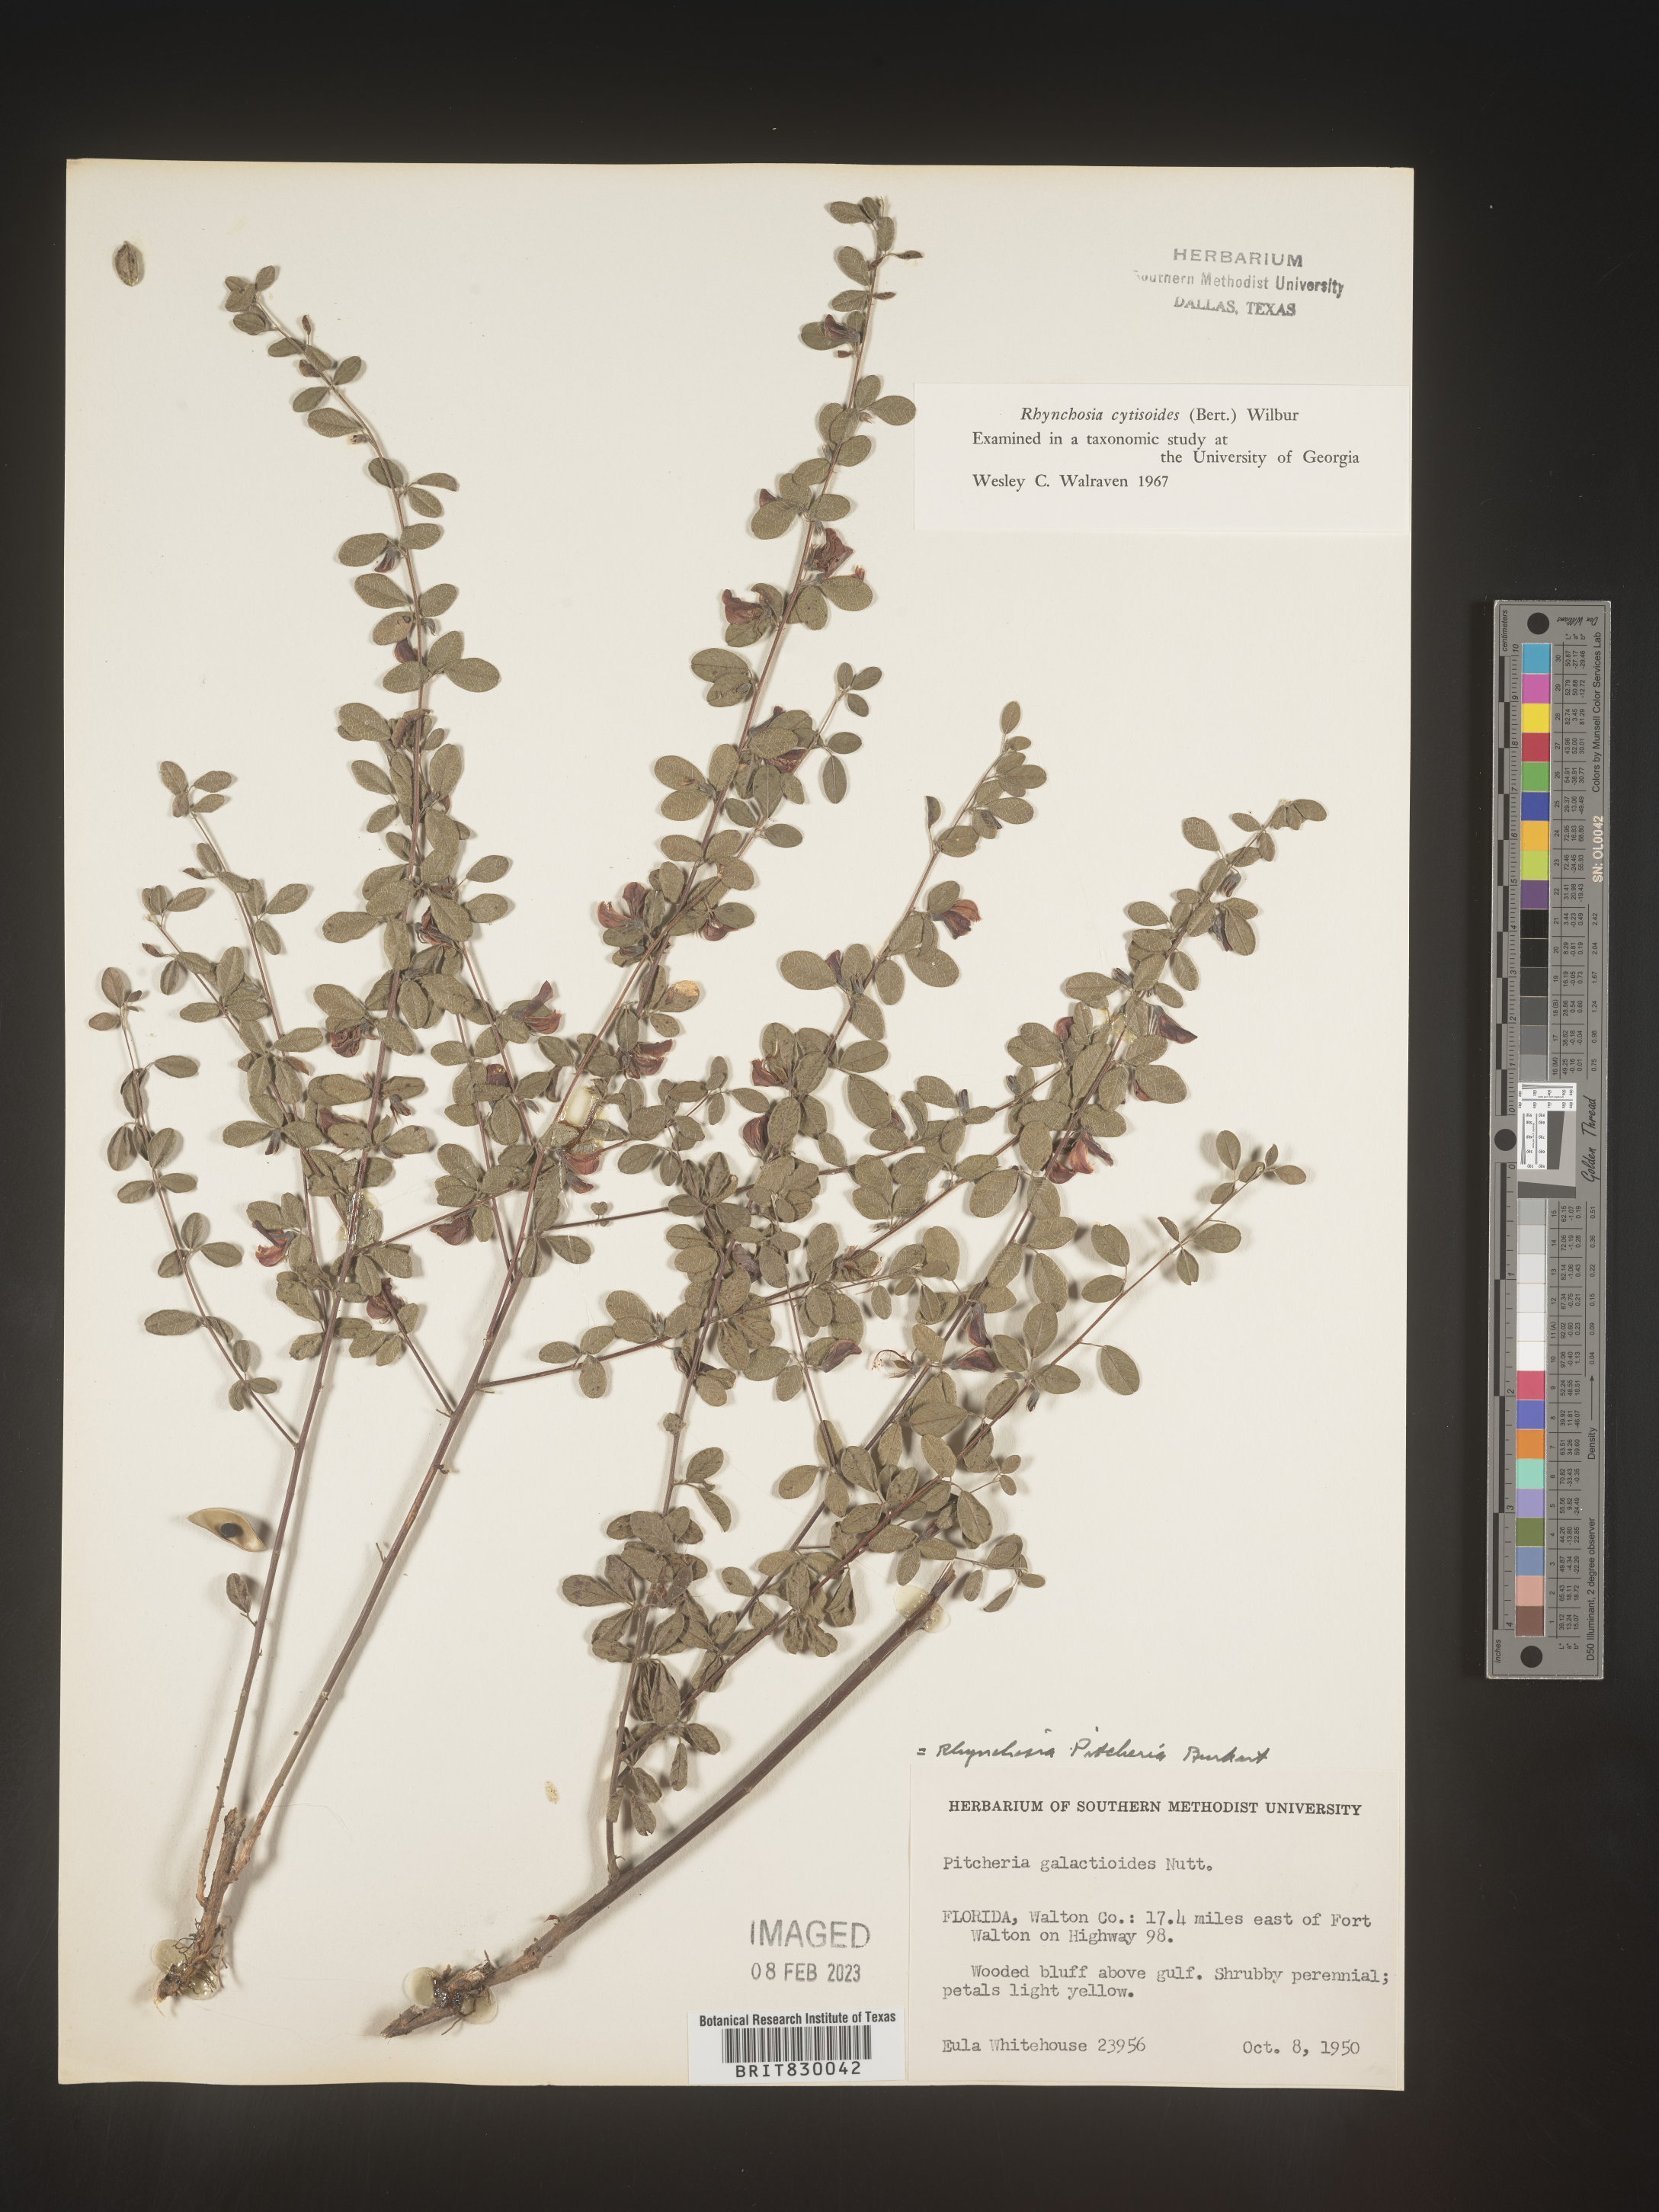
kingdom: Plantae
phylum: Tracheophyta
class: Magnoliopsida
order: Fabales
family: Fabaceae
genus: Rhynchosia
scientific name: Rhynchosia
